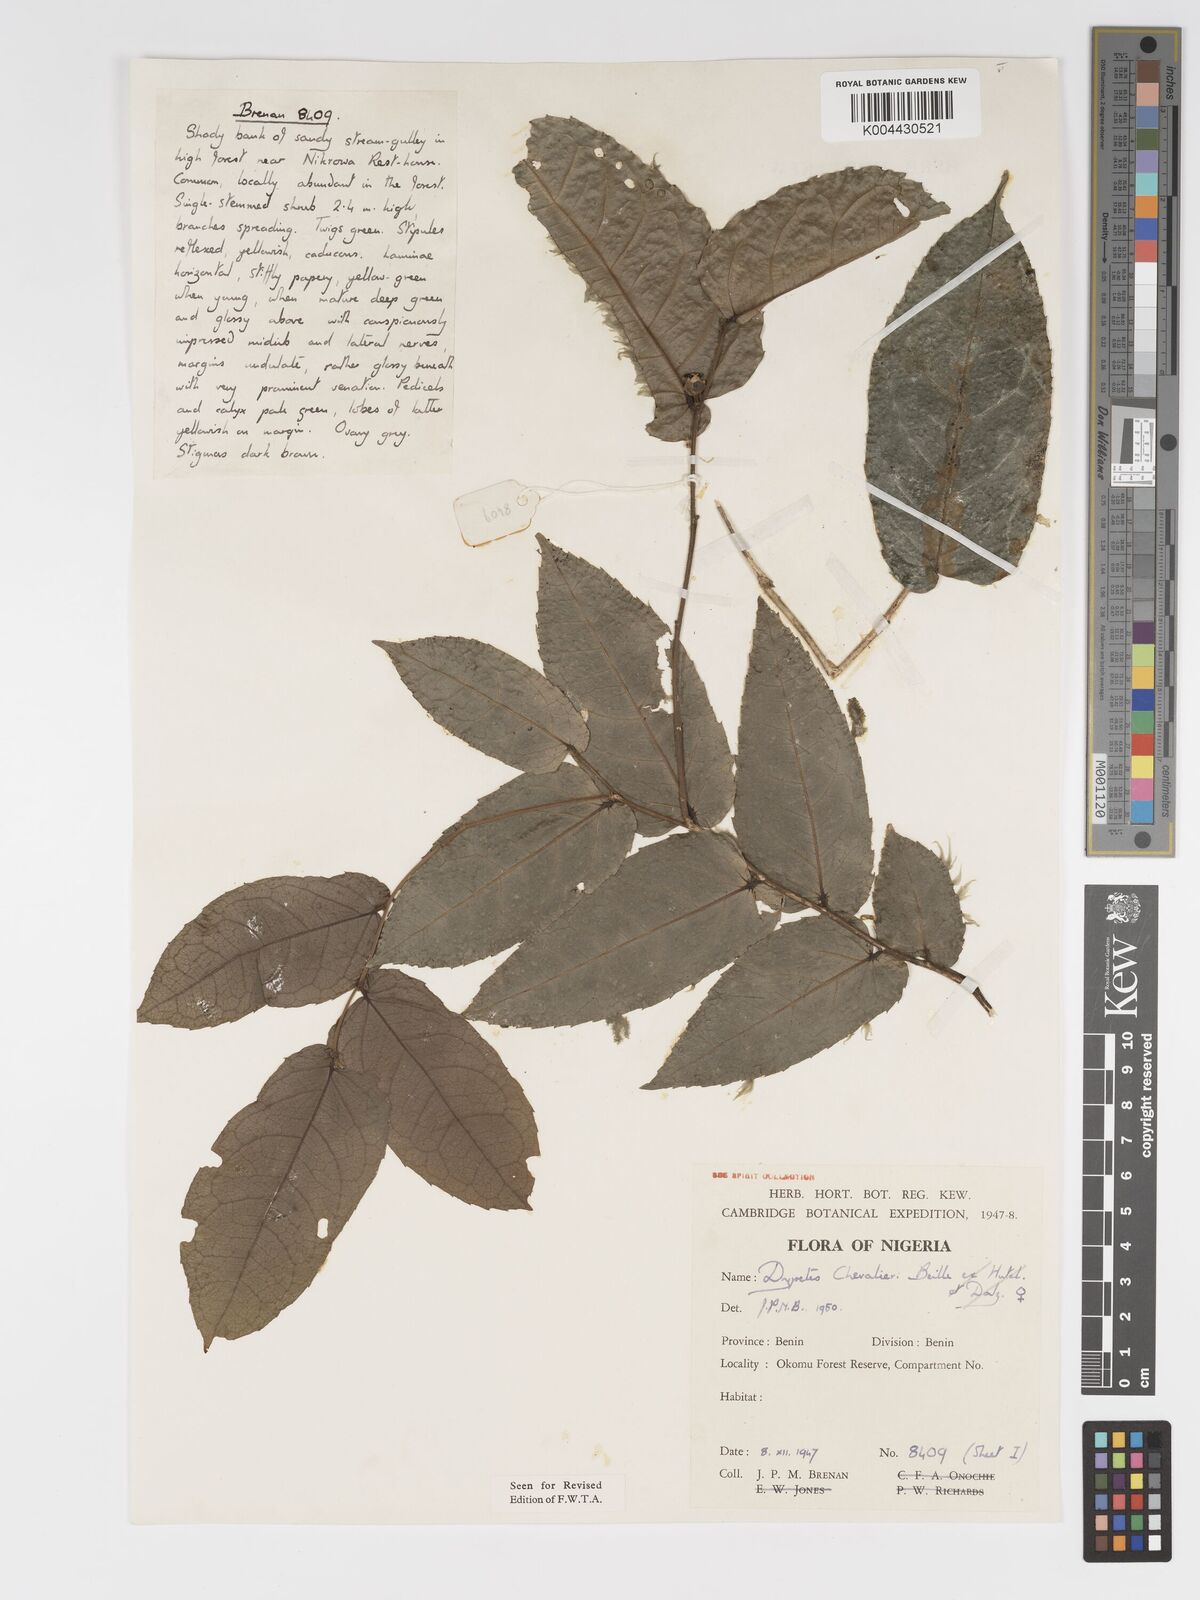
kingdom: Plantae
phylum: Tracheophyta
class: Magnoliopsida
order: Malpighiales
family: Putranjivaceae
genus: Drypetes
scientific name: Drypetes chevalieri
